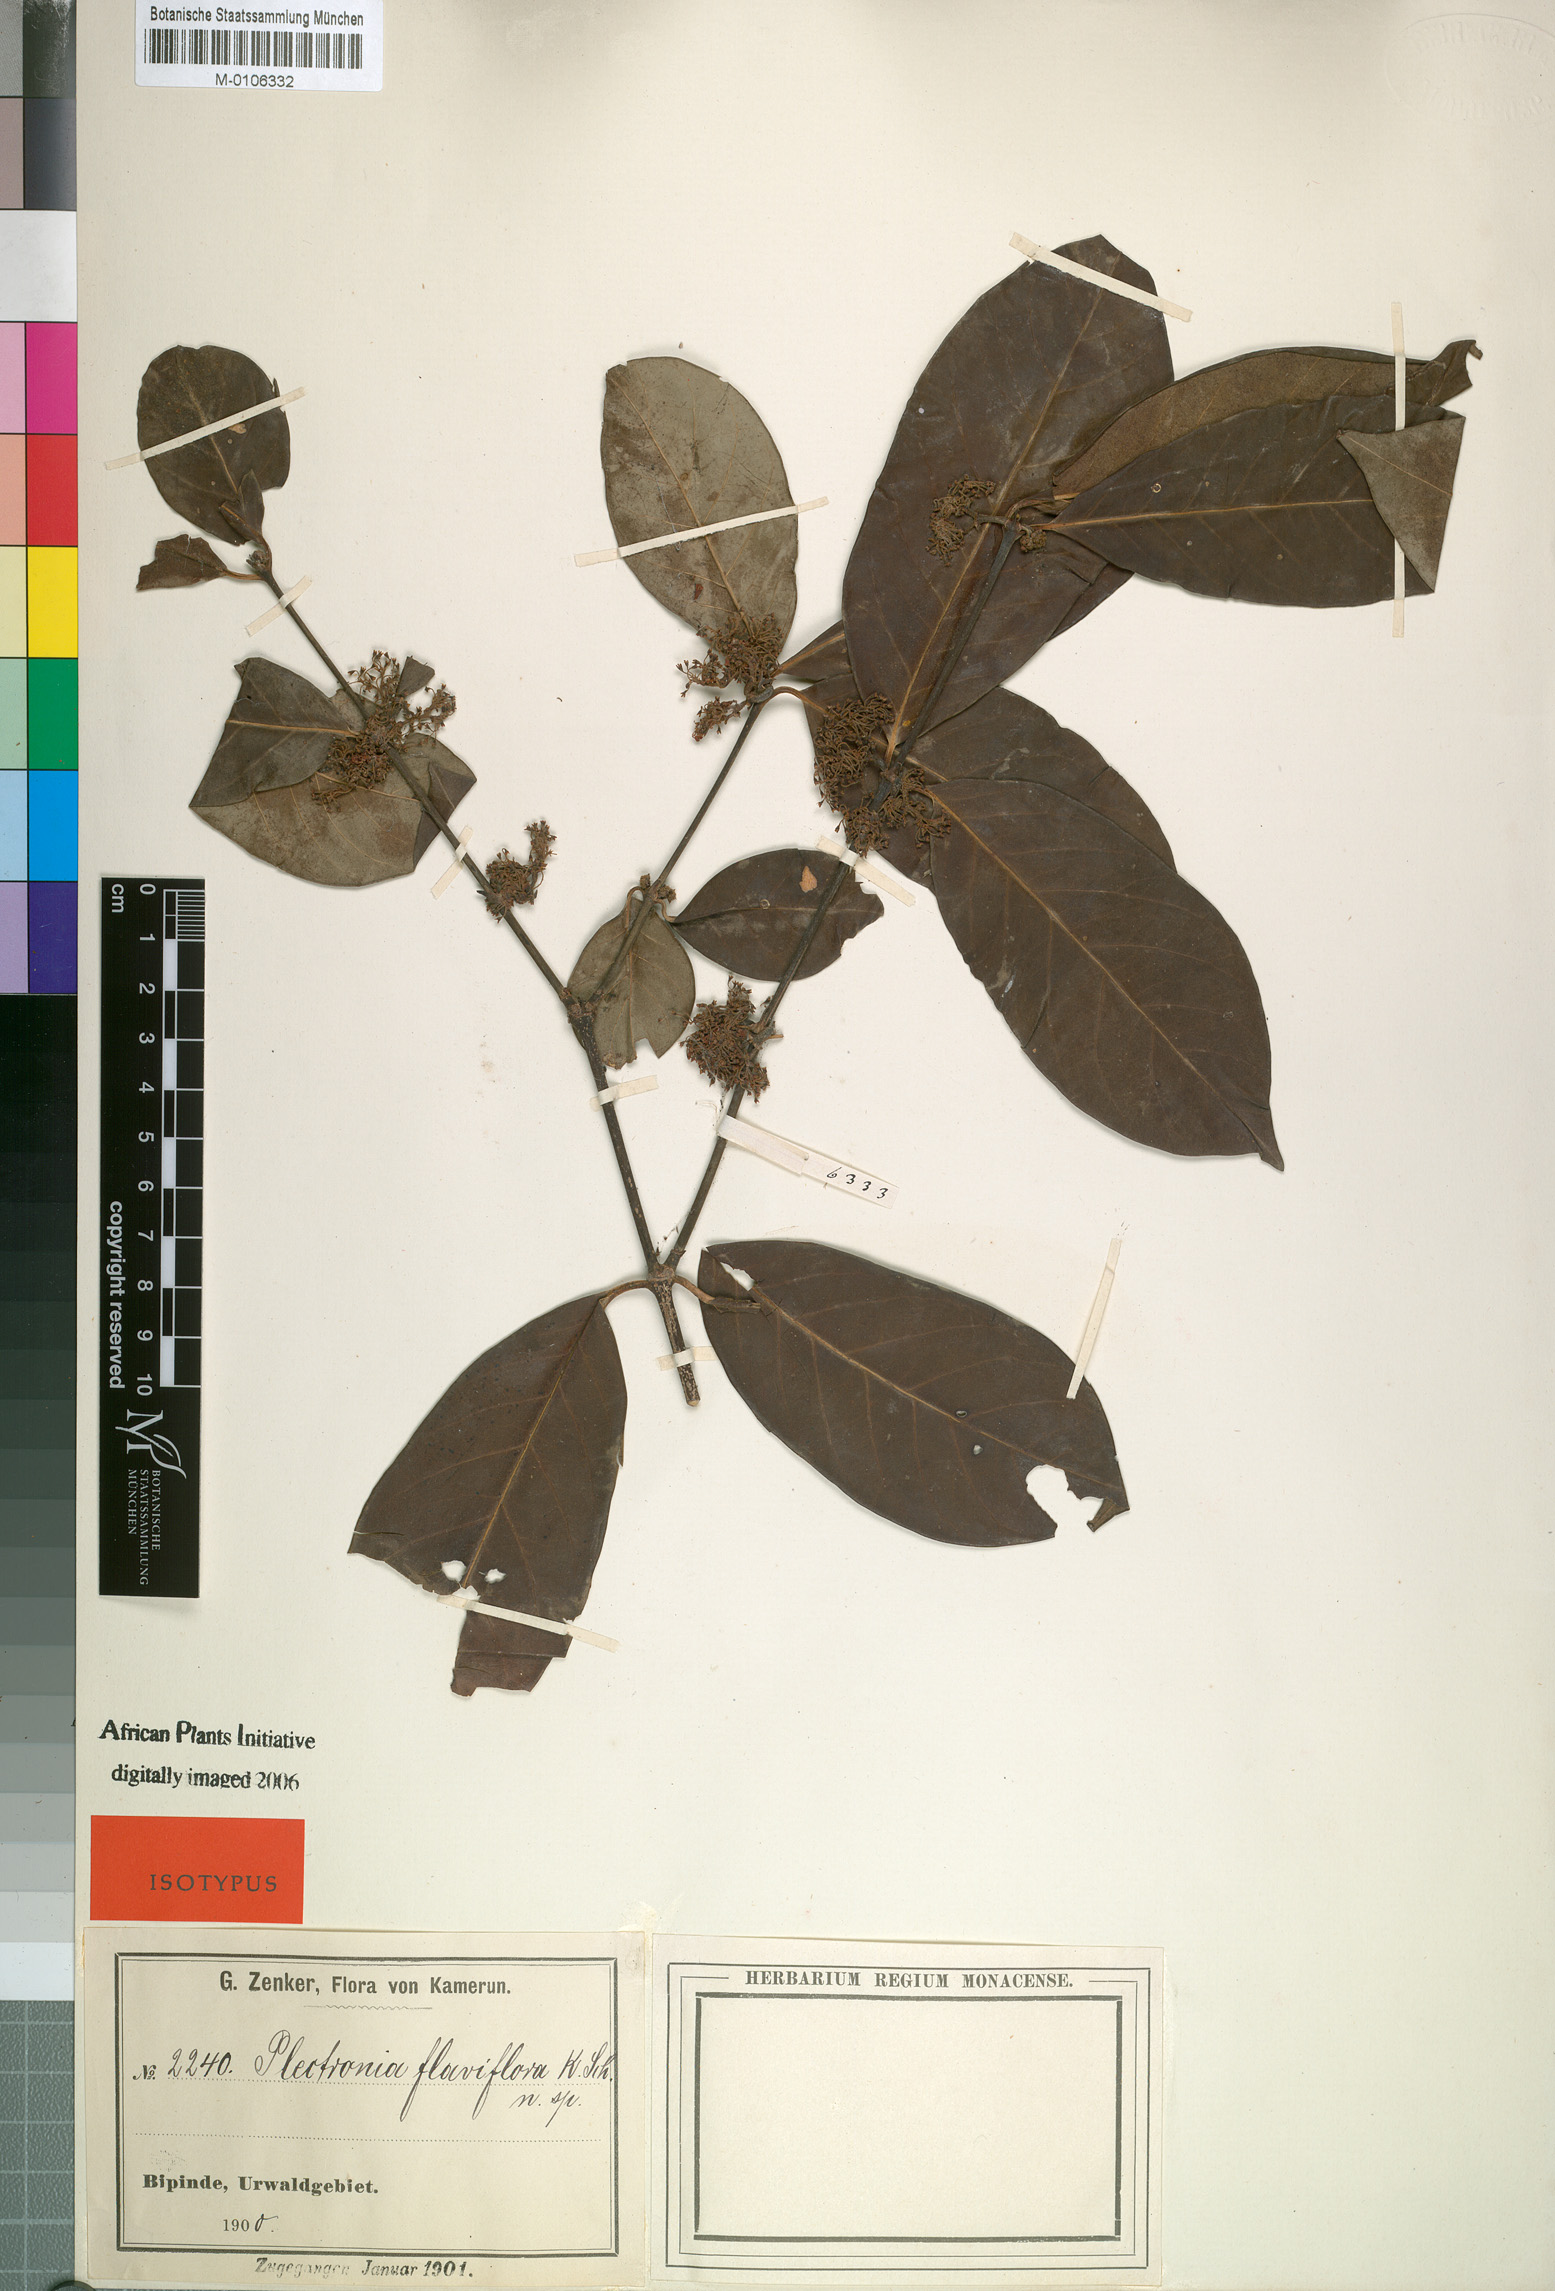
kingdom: Plantae
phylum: Tracheophyta
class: Magnoliopsida
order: Gentianales
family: Rubiaceae
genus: Keetia
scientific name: Keetia mannii
